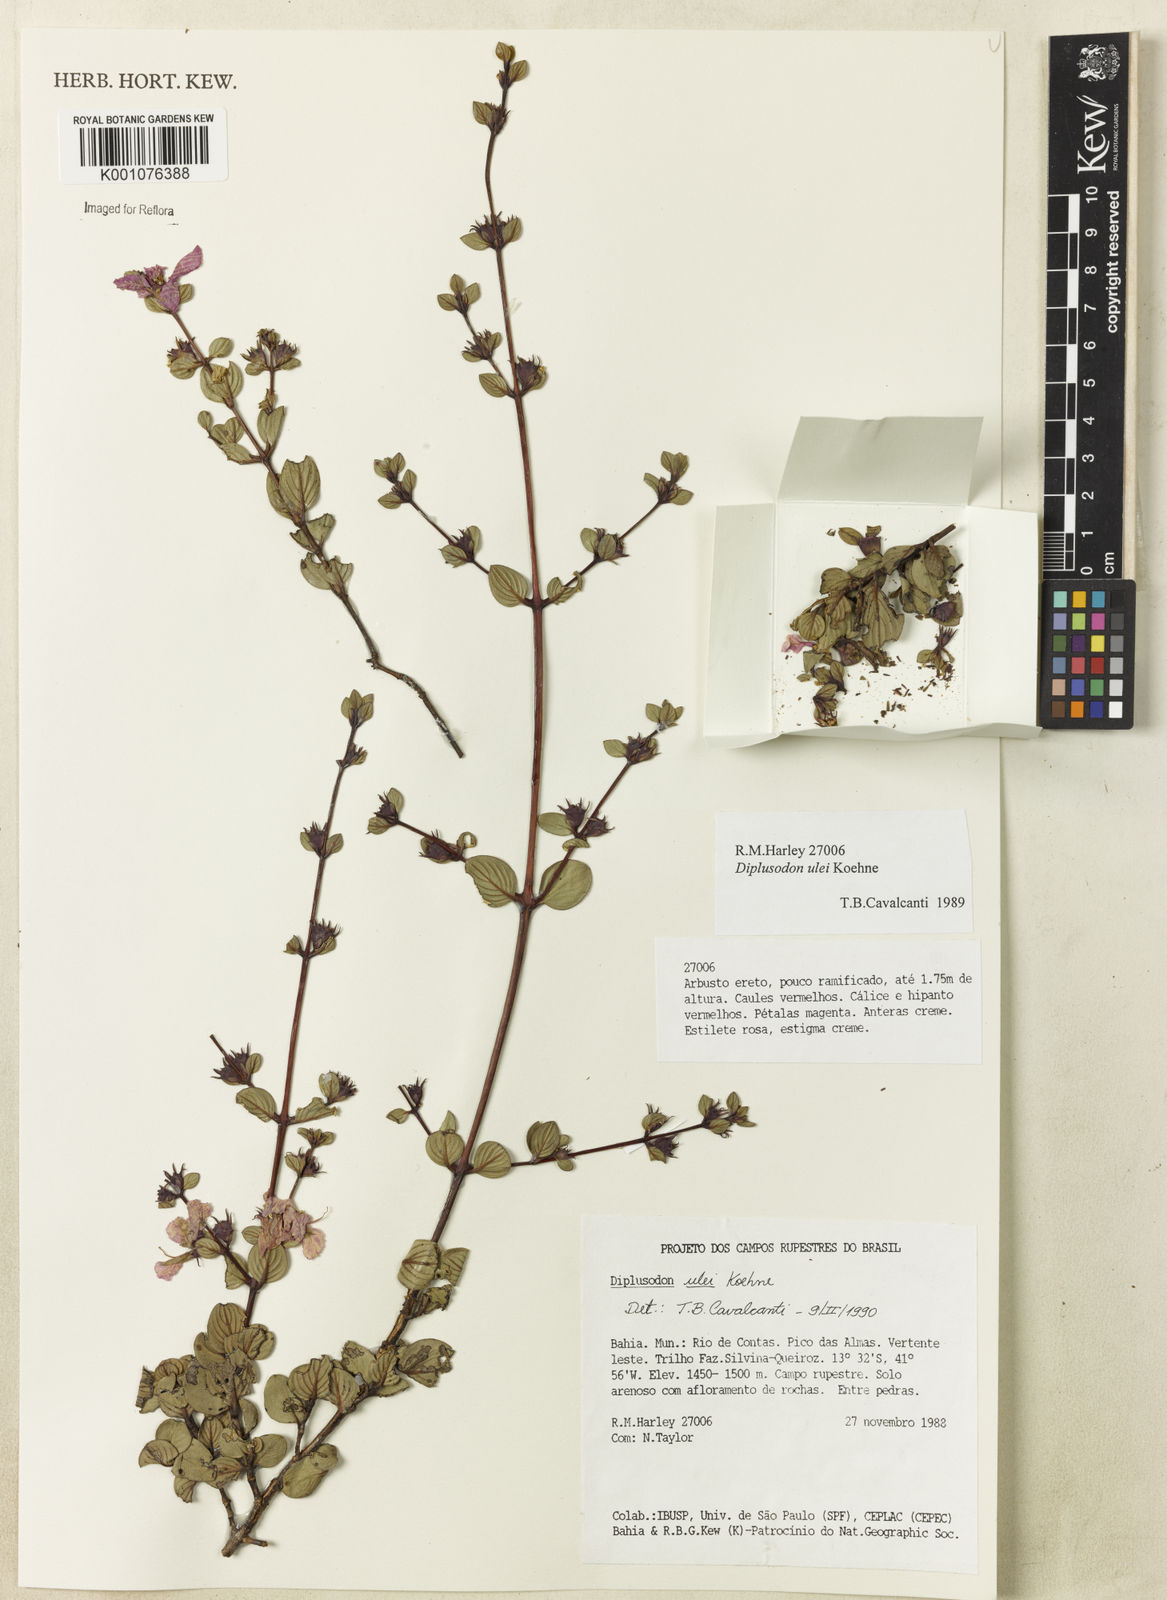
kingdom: Plantae
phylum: Tracheophyta
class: Magnoliopsida
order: Myrtales
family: Lythraceae
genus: Diplusodon
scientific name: Diplusodon ulei
